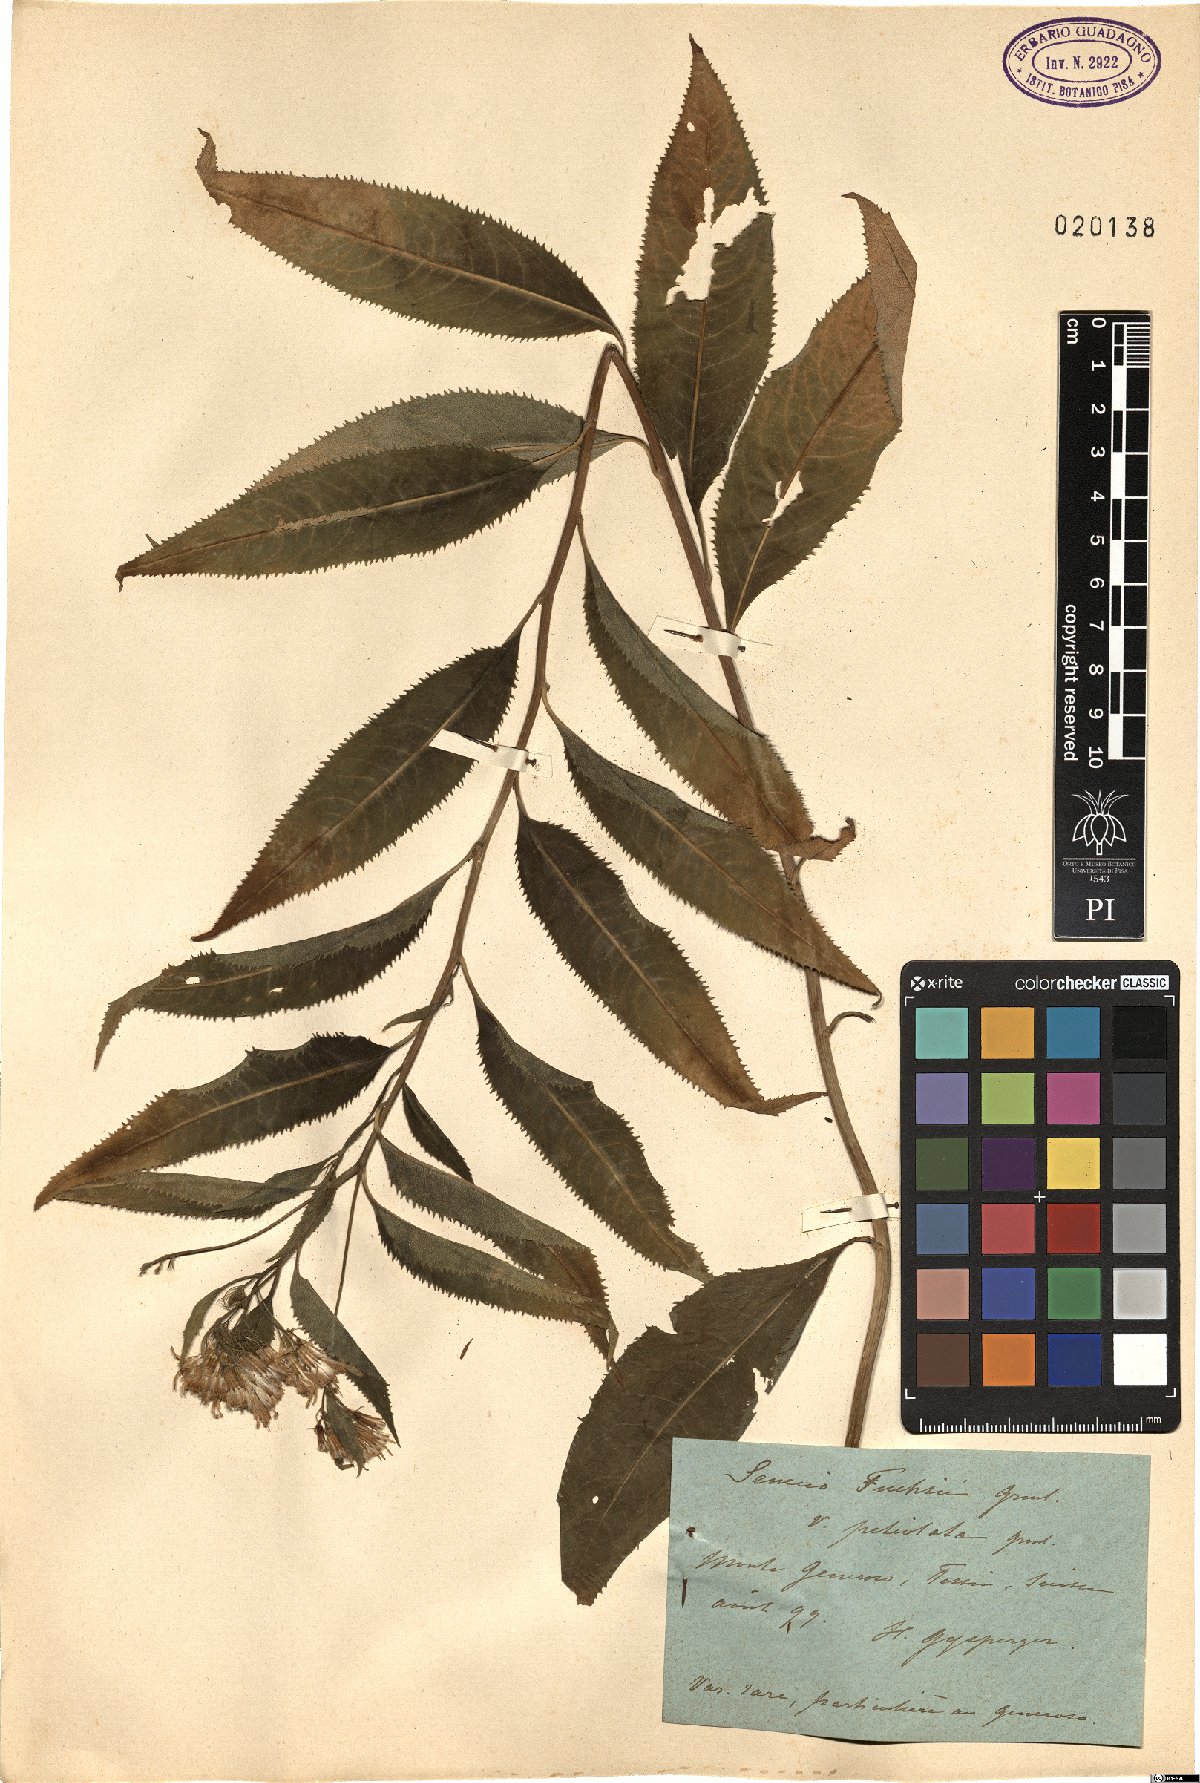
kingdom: Plantae
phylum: Tracheophyta
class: Magnoliopsida
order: Asterales
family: Asteraceae
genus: Senecio
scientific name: Senecio ovatus
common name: Wood ragwort
